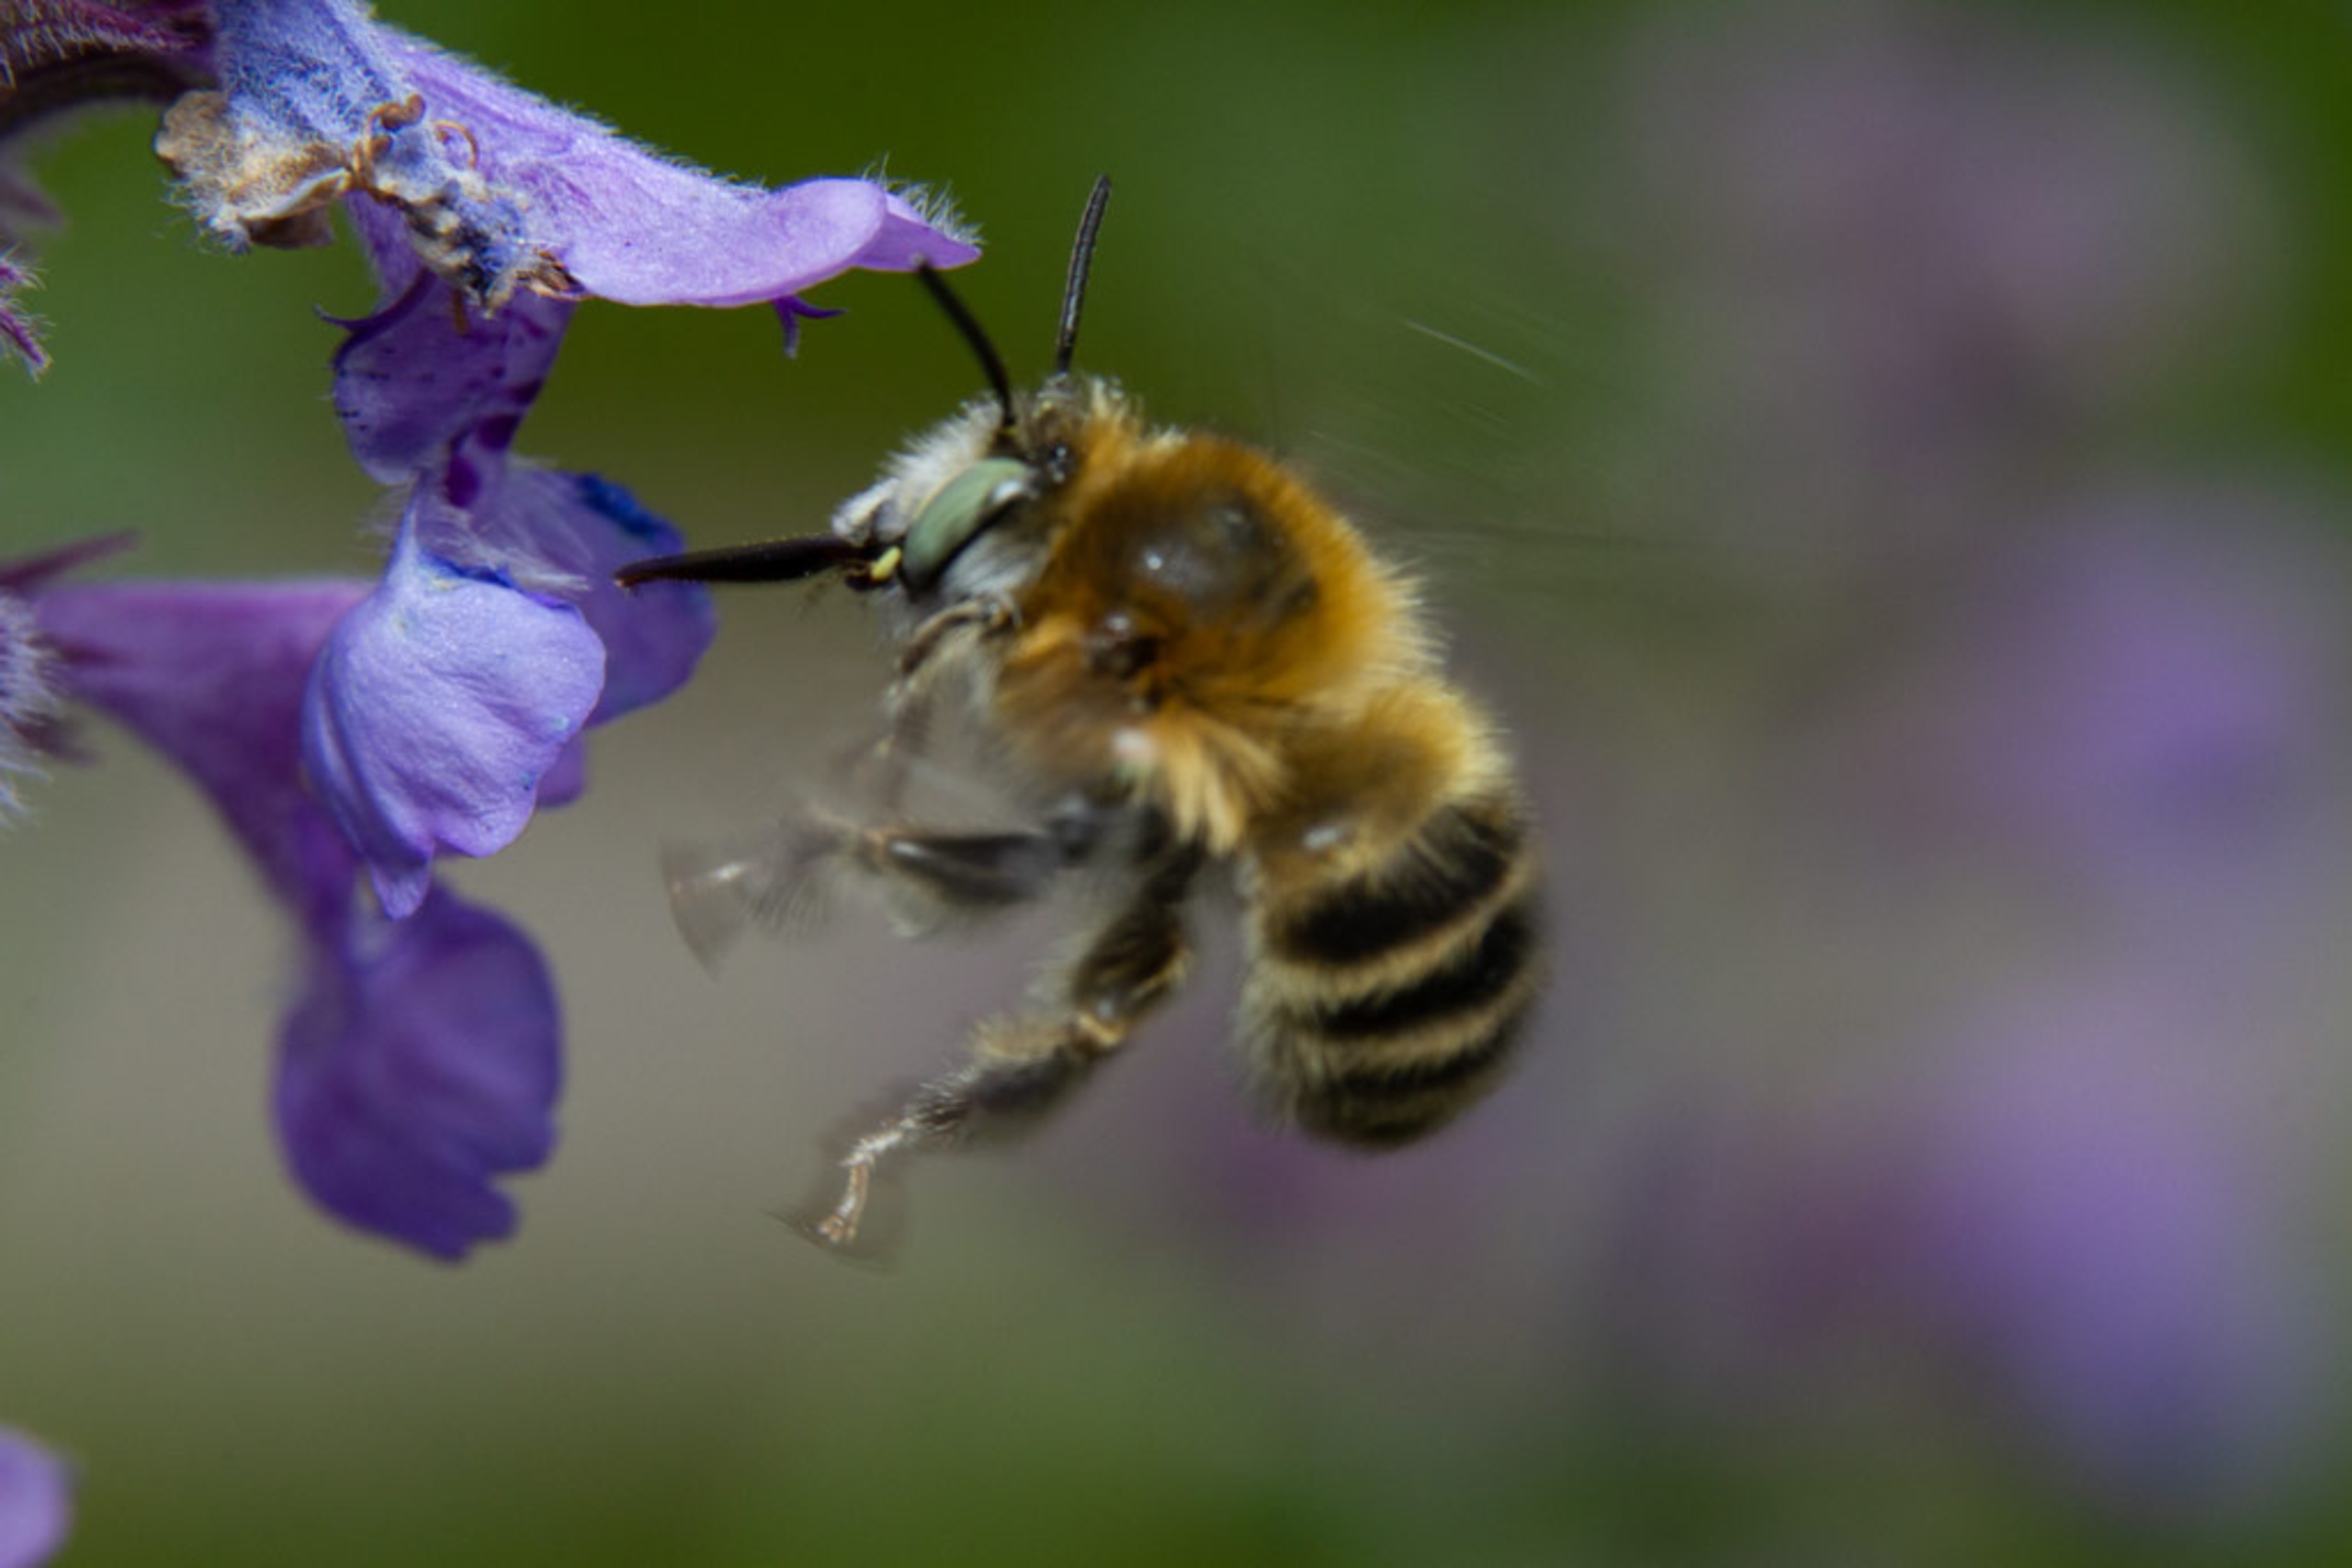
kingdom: Animalia
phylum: Arthropoda
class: Insecta
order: Hymenoptera
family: Apidae
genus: Anthophora
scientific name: Anthophora quadrimaculata
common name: Havevægbi
